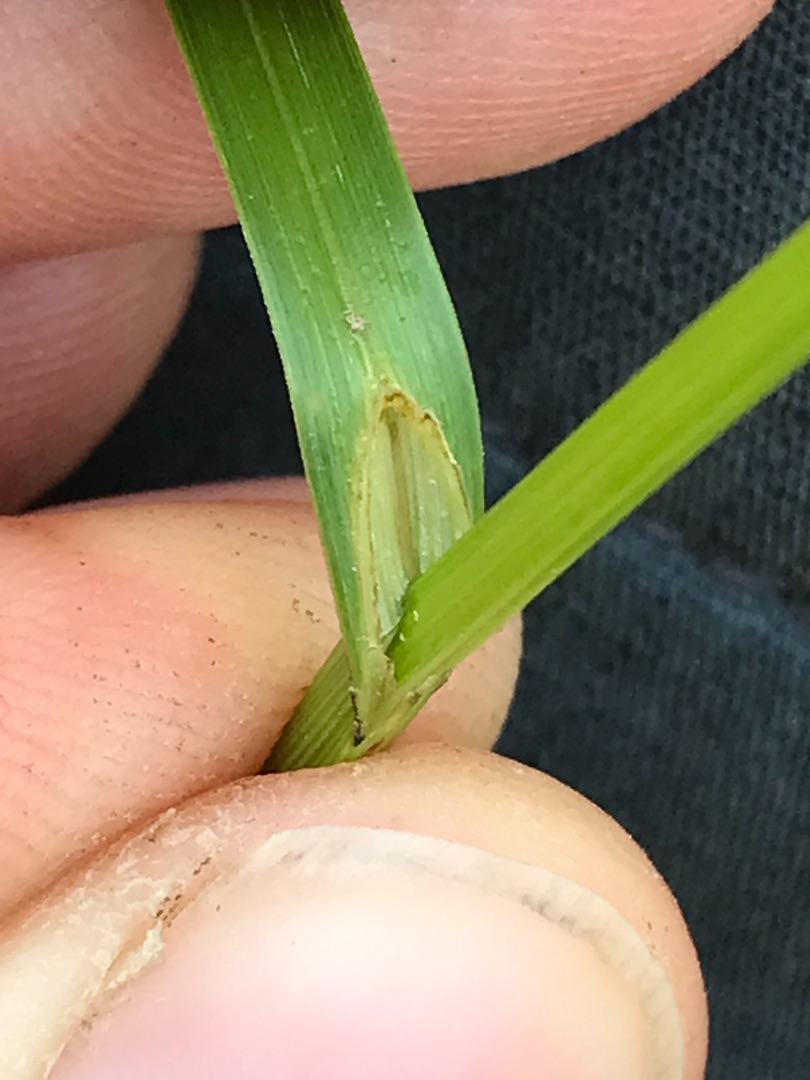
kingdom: Plantae
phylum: Tracheophyta
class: Liliopsida
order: Poales
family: Cyperaceae
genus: Carex
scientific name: Carex disticha
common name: Toradet star
